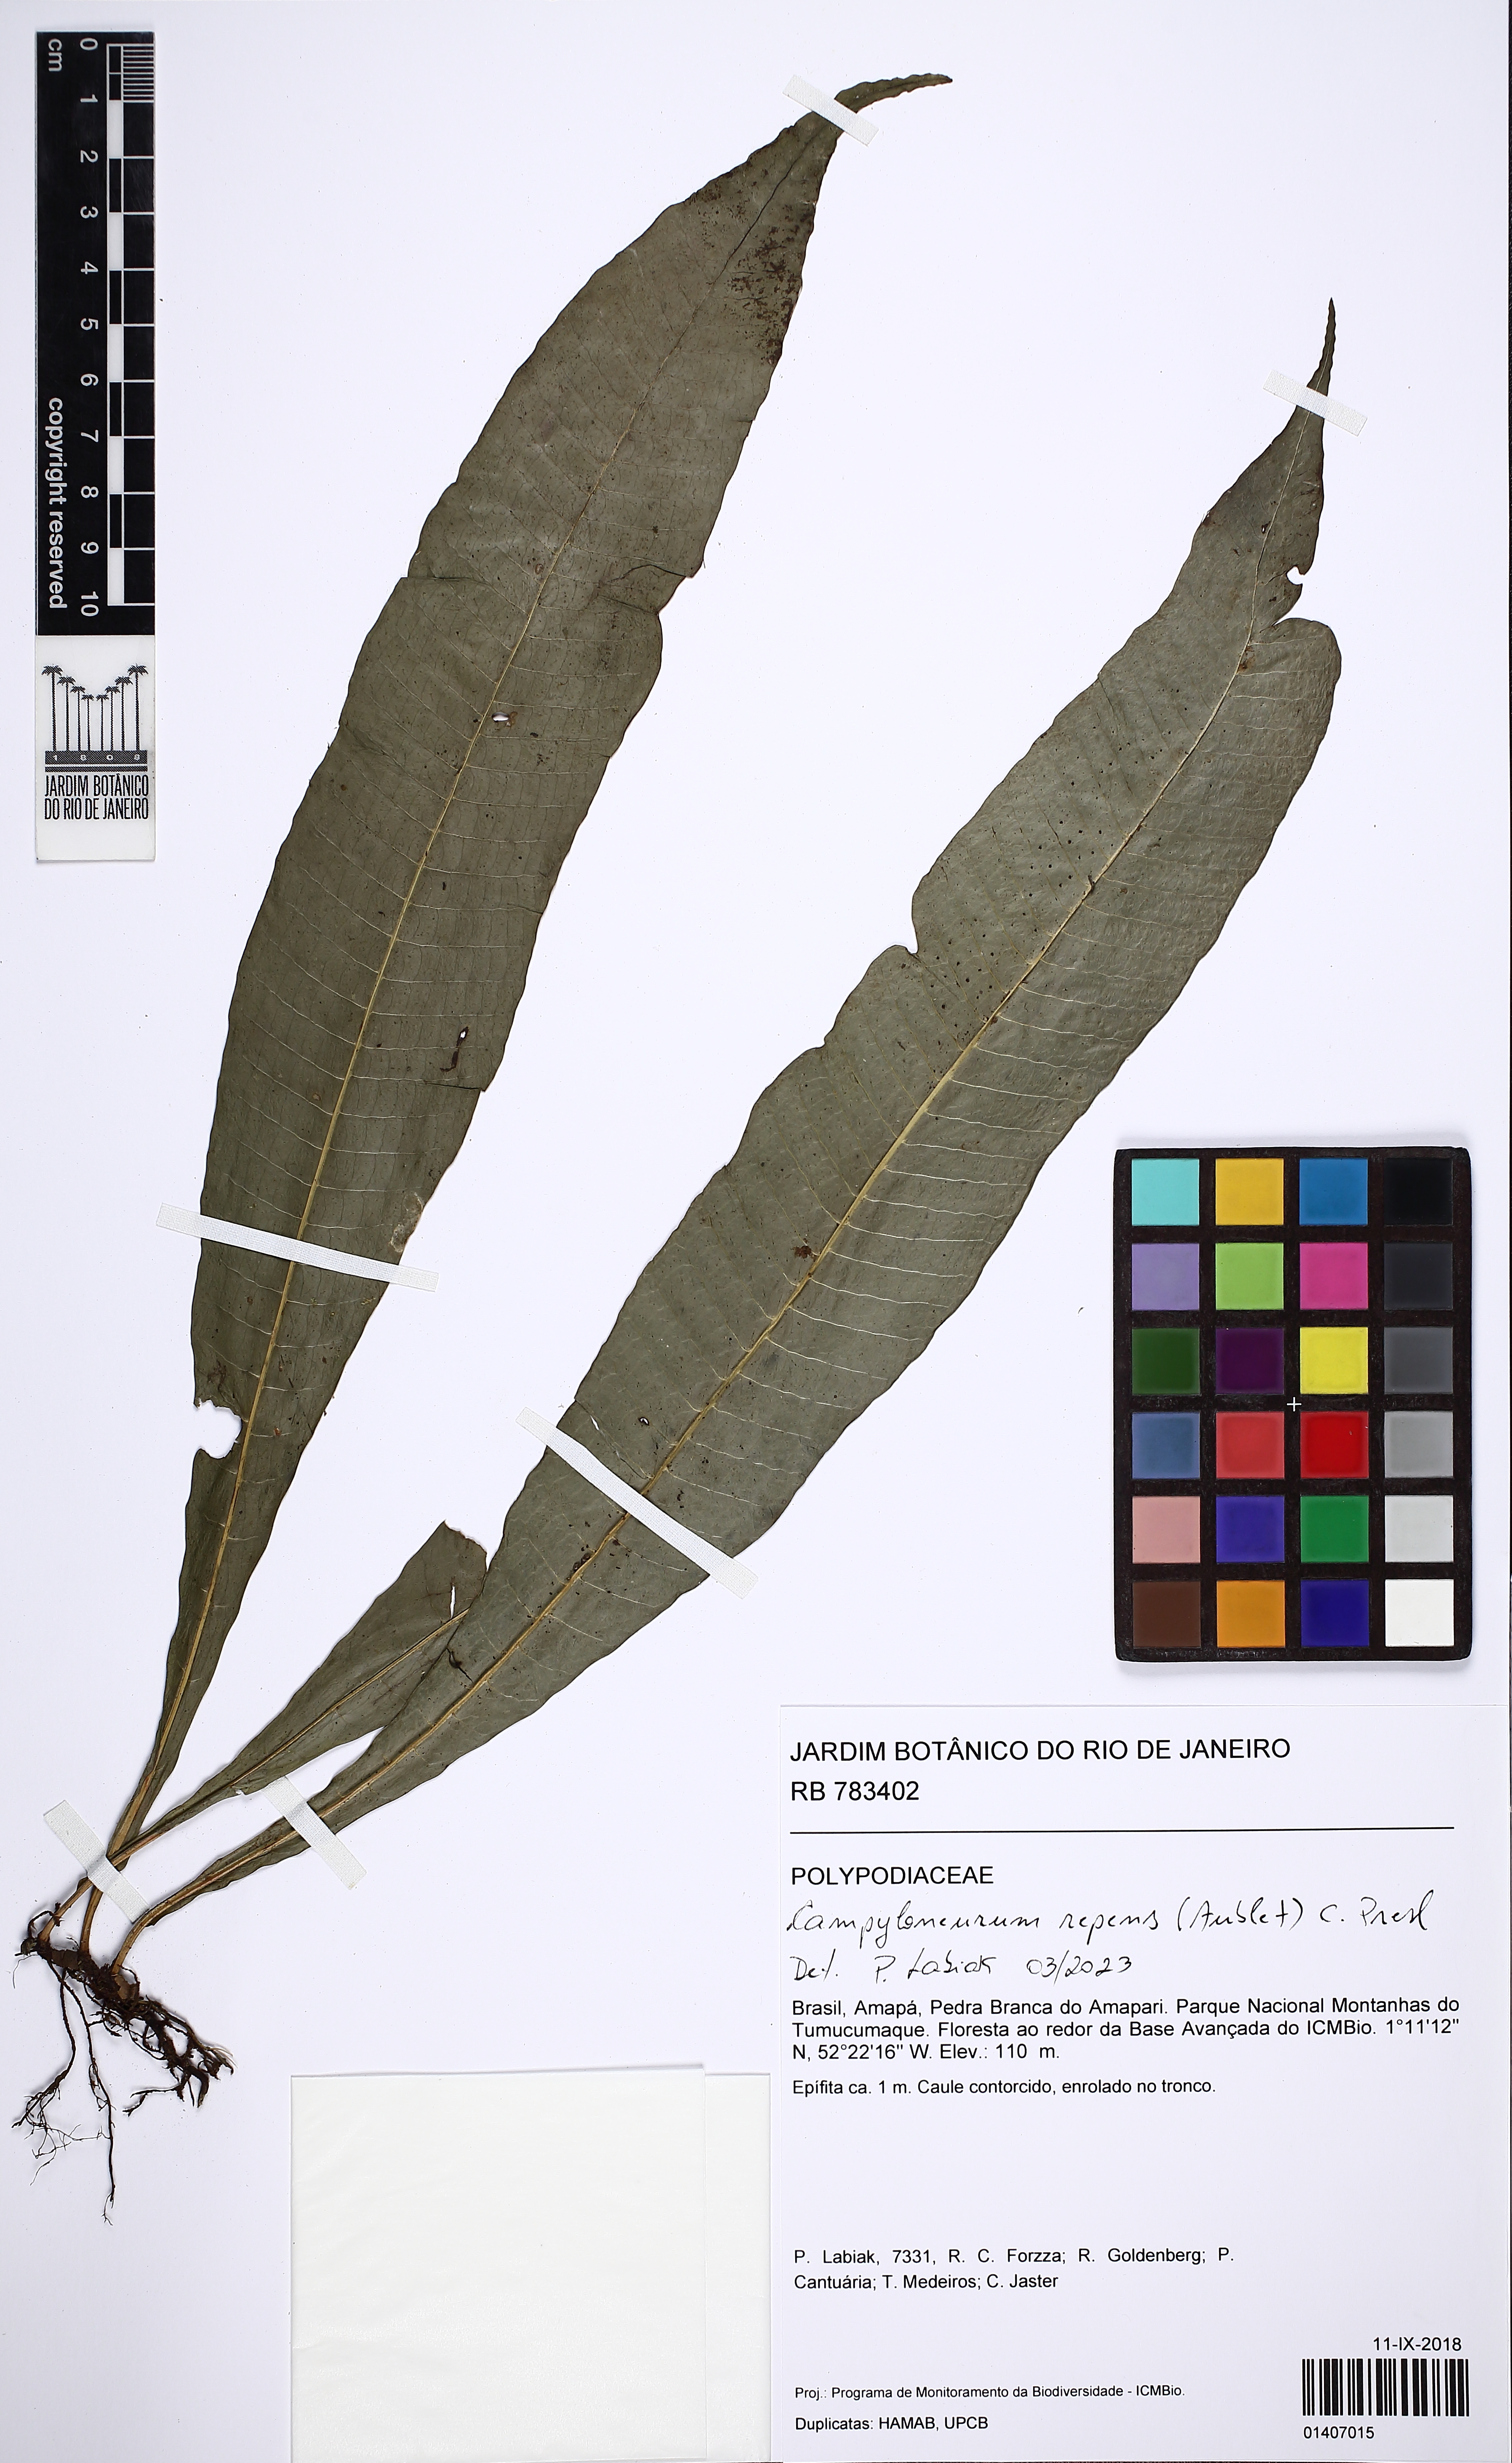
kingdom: Plantae
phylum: Tracheophyta
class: Polypodiopsida
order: Polypodiales
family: Polypodiaceae
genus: Campyloneurum
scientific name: Campyloneurum repens
